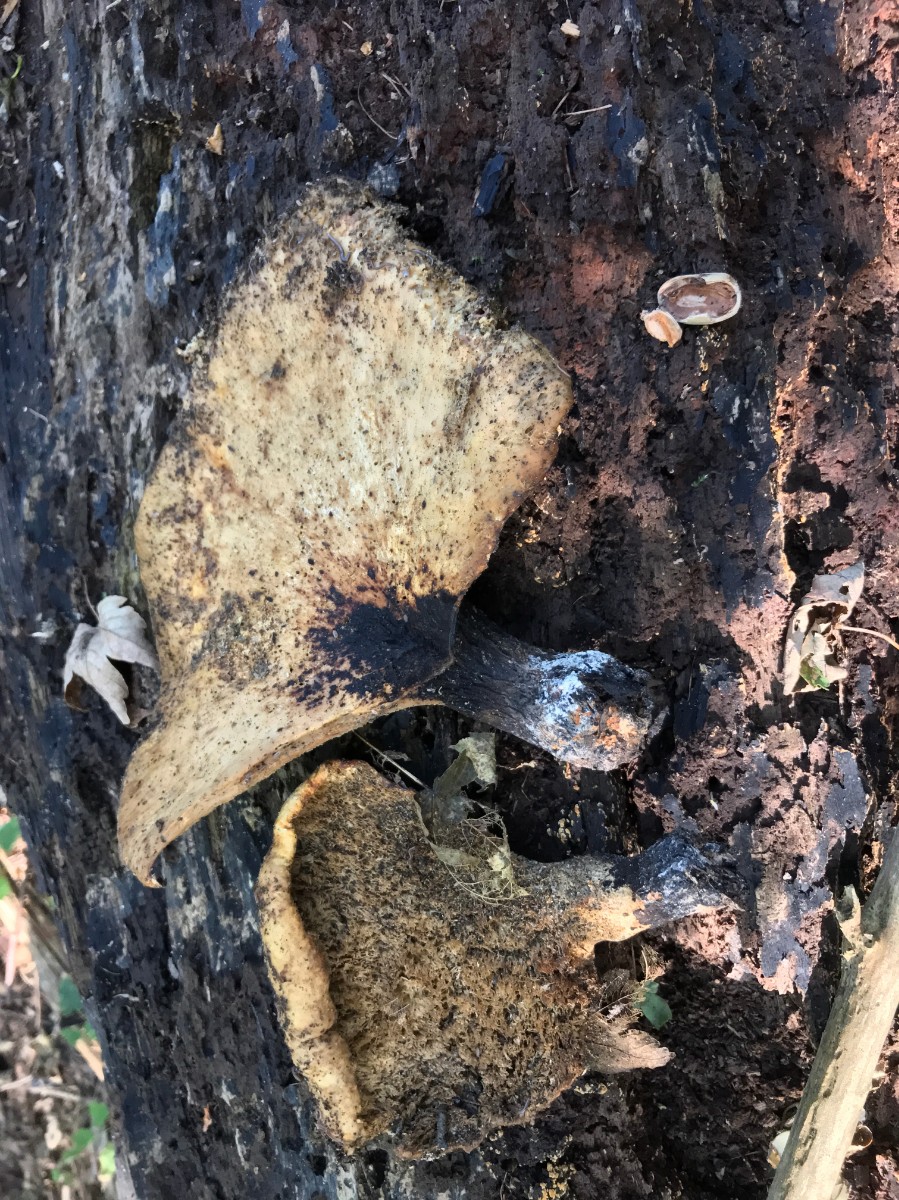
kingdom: Fungi
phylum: Basidiomycota
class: Agaricomycetes
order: Polyporales
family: Polyporaceae
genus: Cerioporus
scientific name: Cerioporus squamosus
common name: skællet stilkporesvamp
